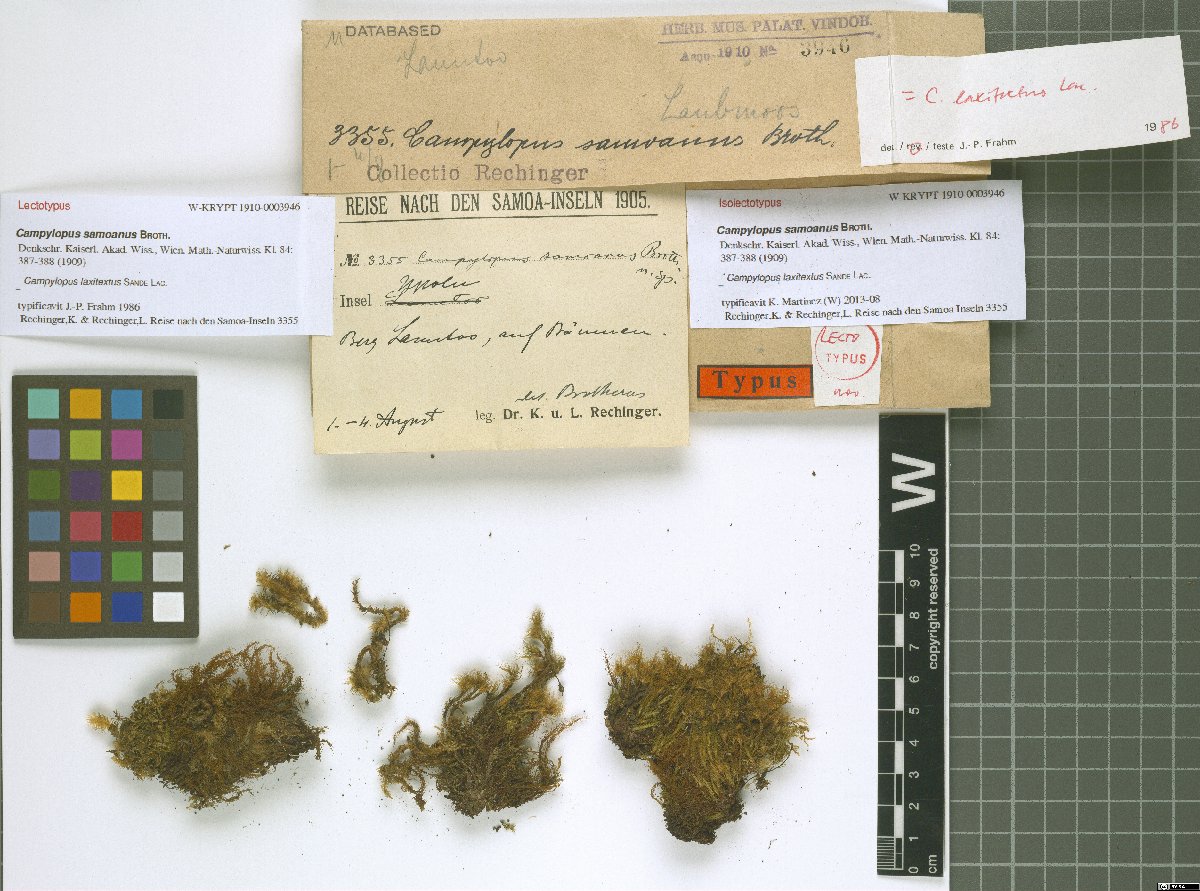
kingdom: Plantae
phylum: Bryophyta
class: Bryopsida
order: Dicranales
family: Leucobryaceae
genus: Campylopus
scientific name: Campylopus laxitextus
